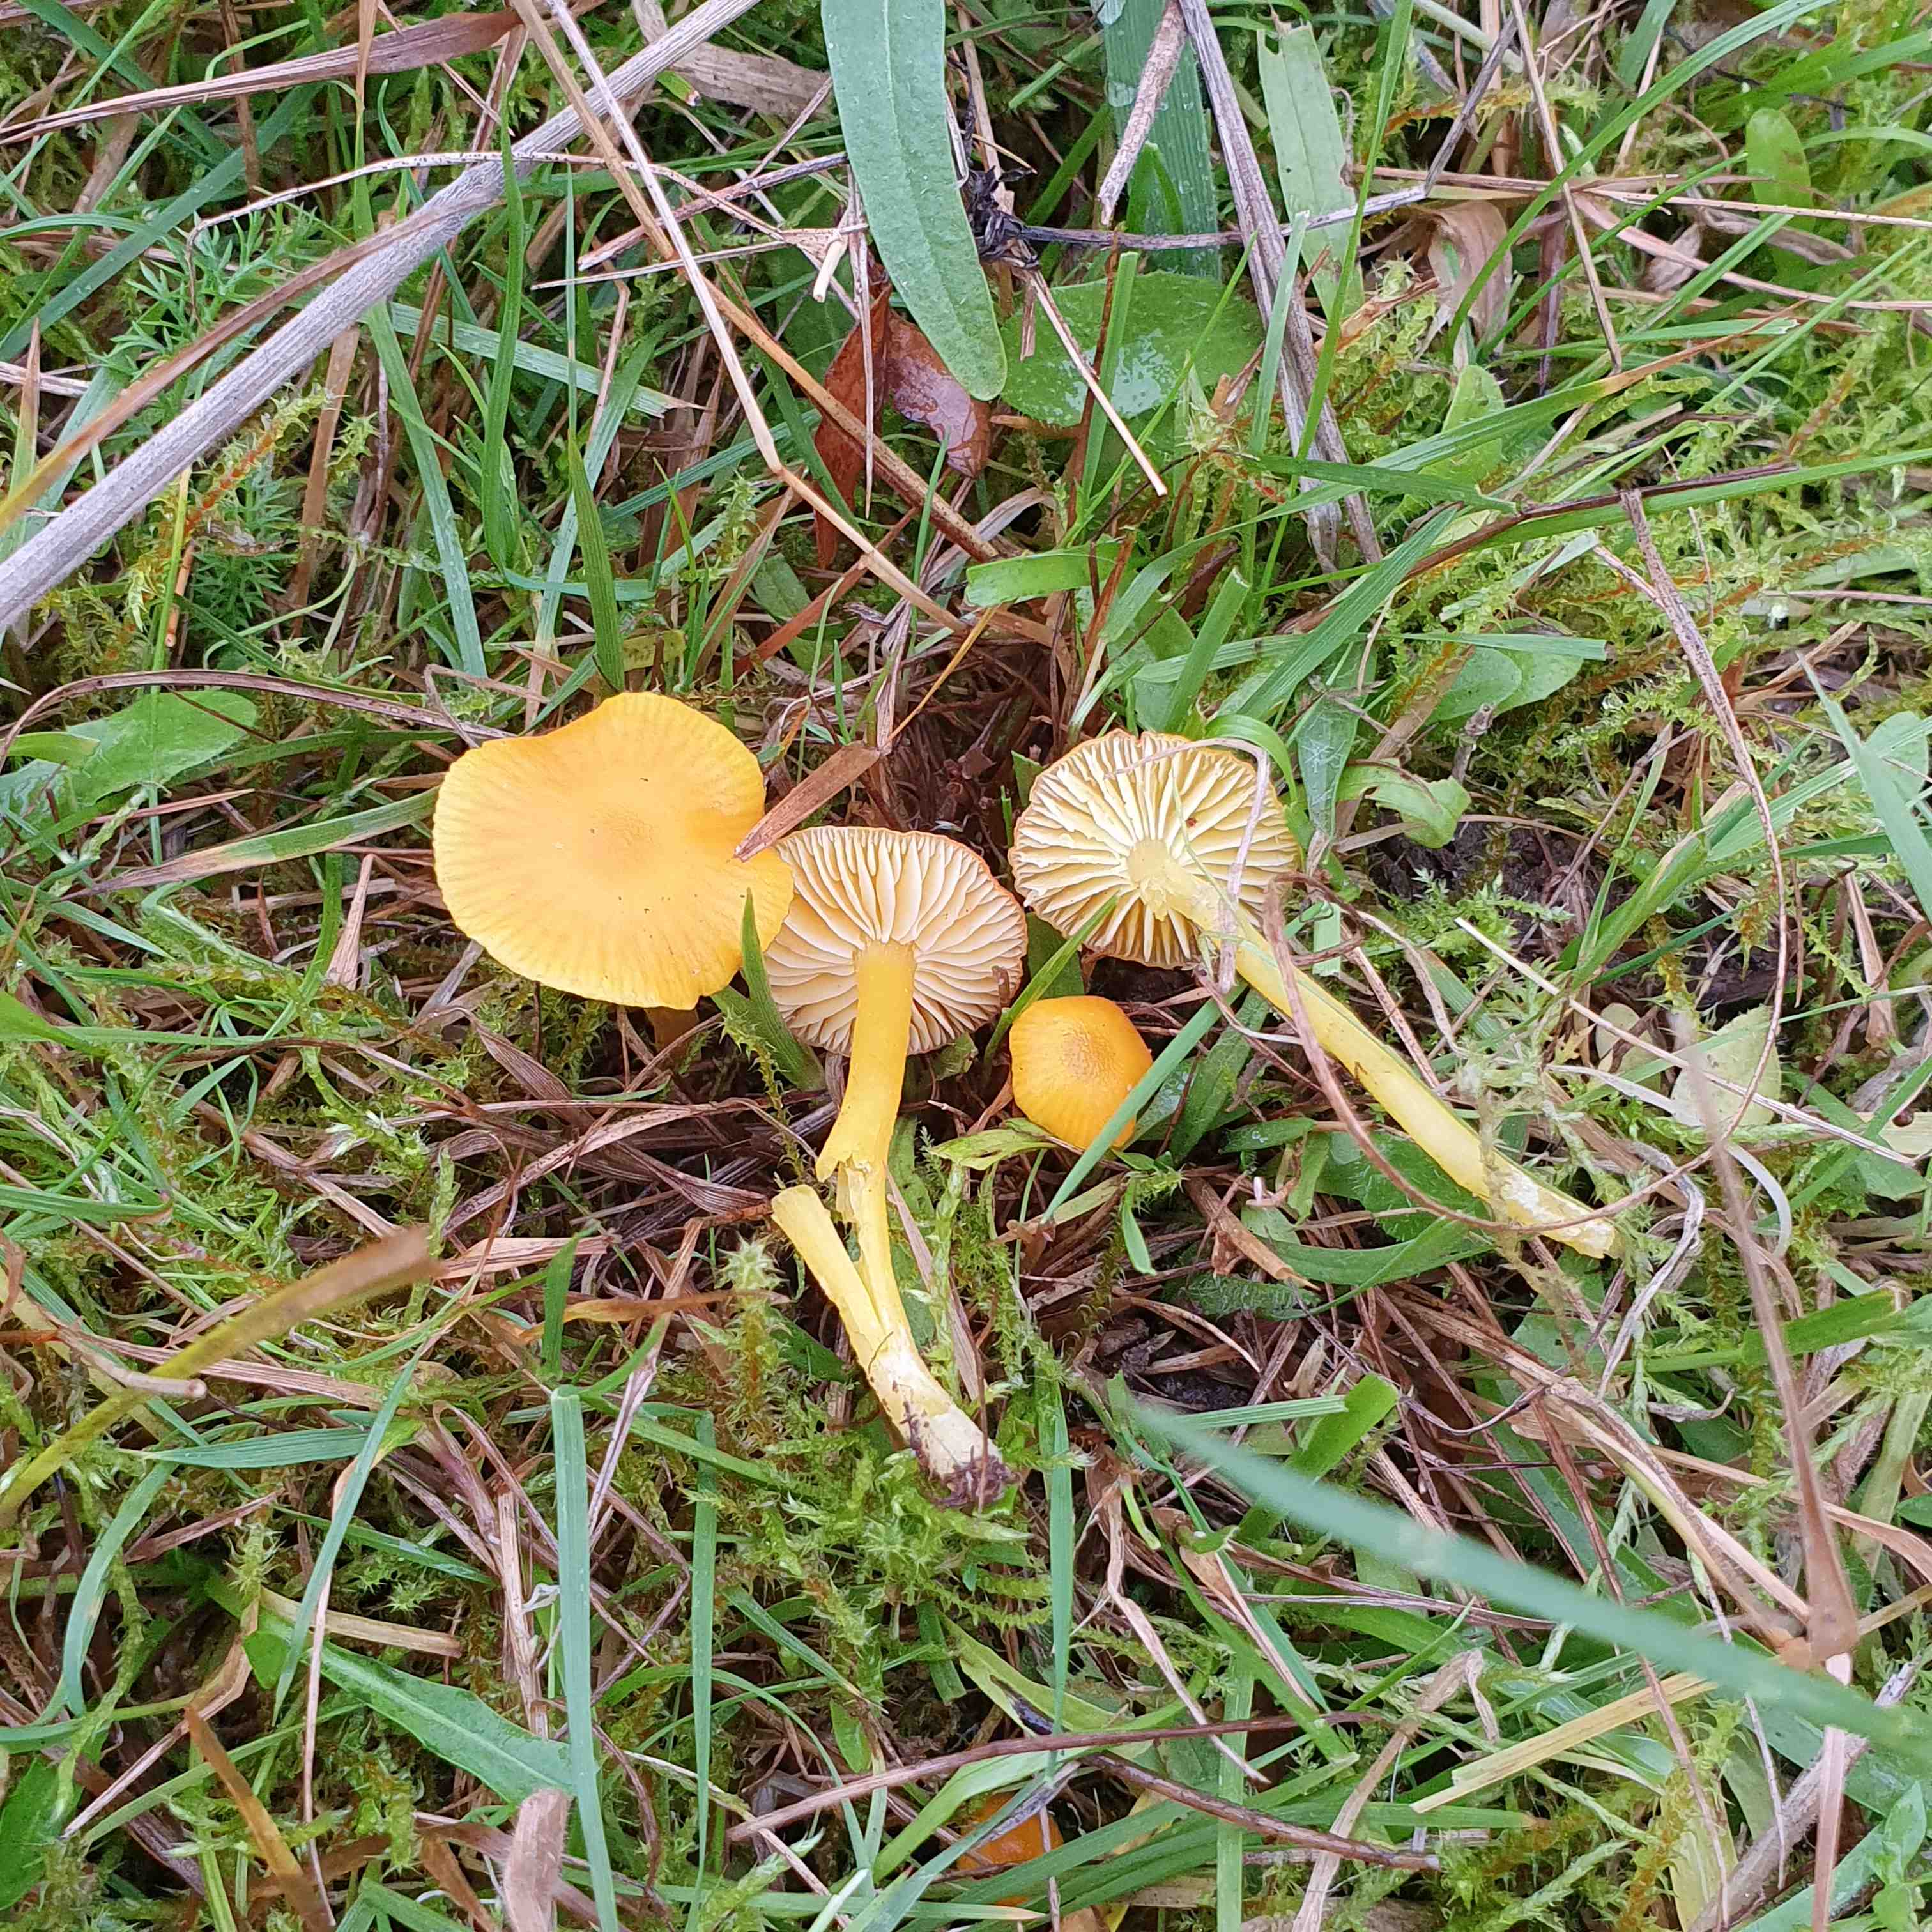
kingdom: Fungi
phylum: Basidiomycota
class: Agaricomycetes
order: Agaricales
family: Hygrophoraceae
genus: Hygrocybe
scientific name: Hygrocybe glutinipes
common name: slimstokket vokshat
